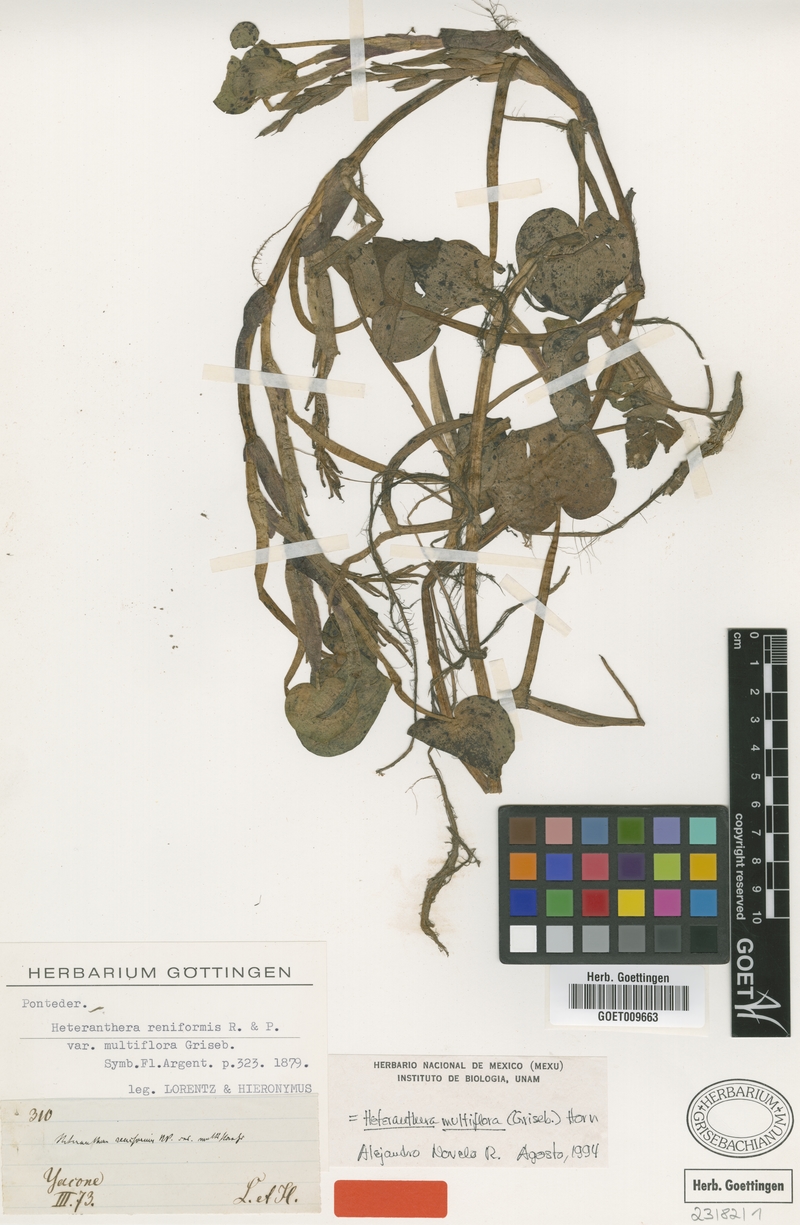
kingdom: Plantae
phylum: Tracheophyta
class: Liliopsida
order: Commelinales
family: Pontederiaceae
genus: Heteranthera
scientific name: Heteranthera multiflora
